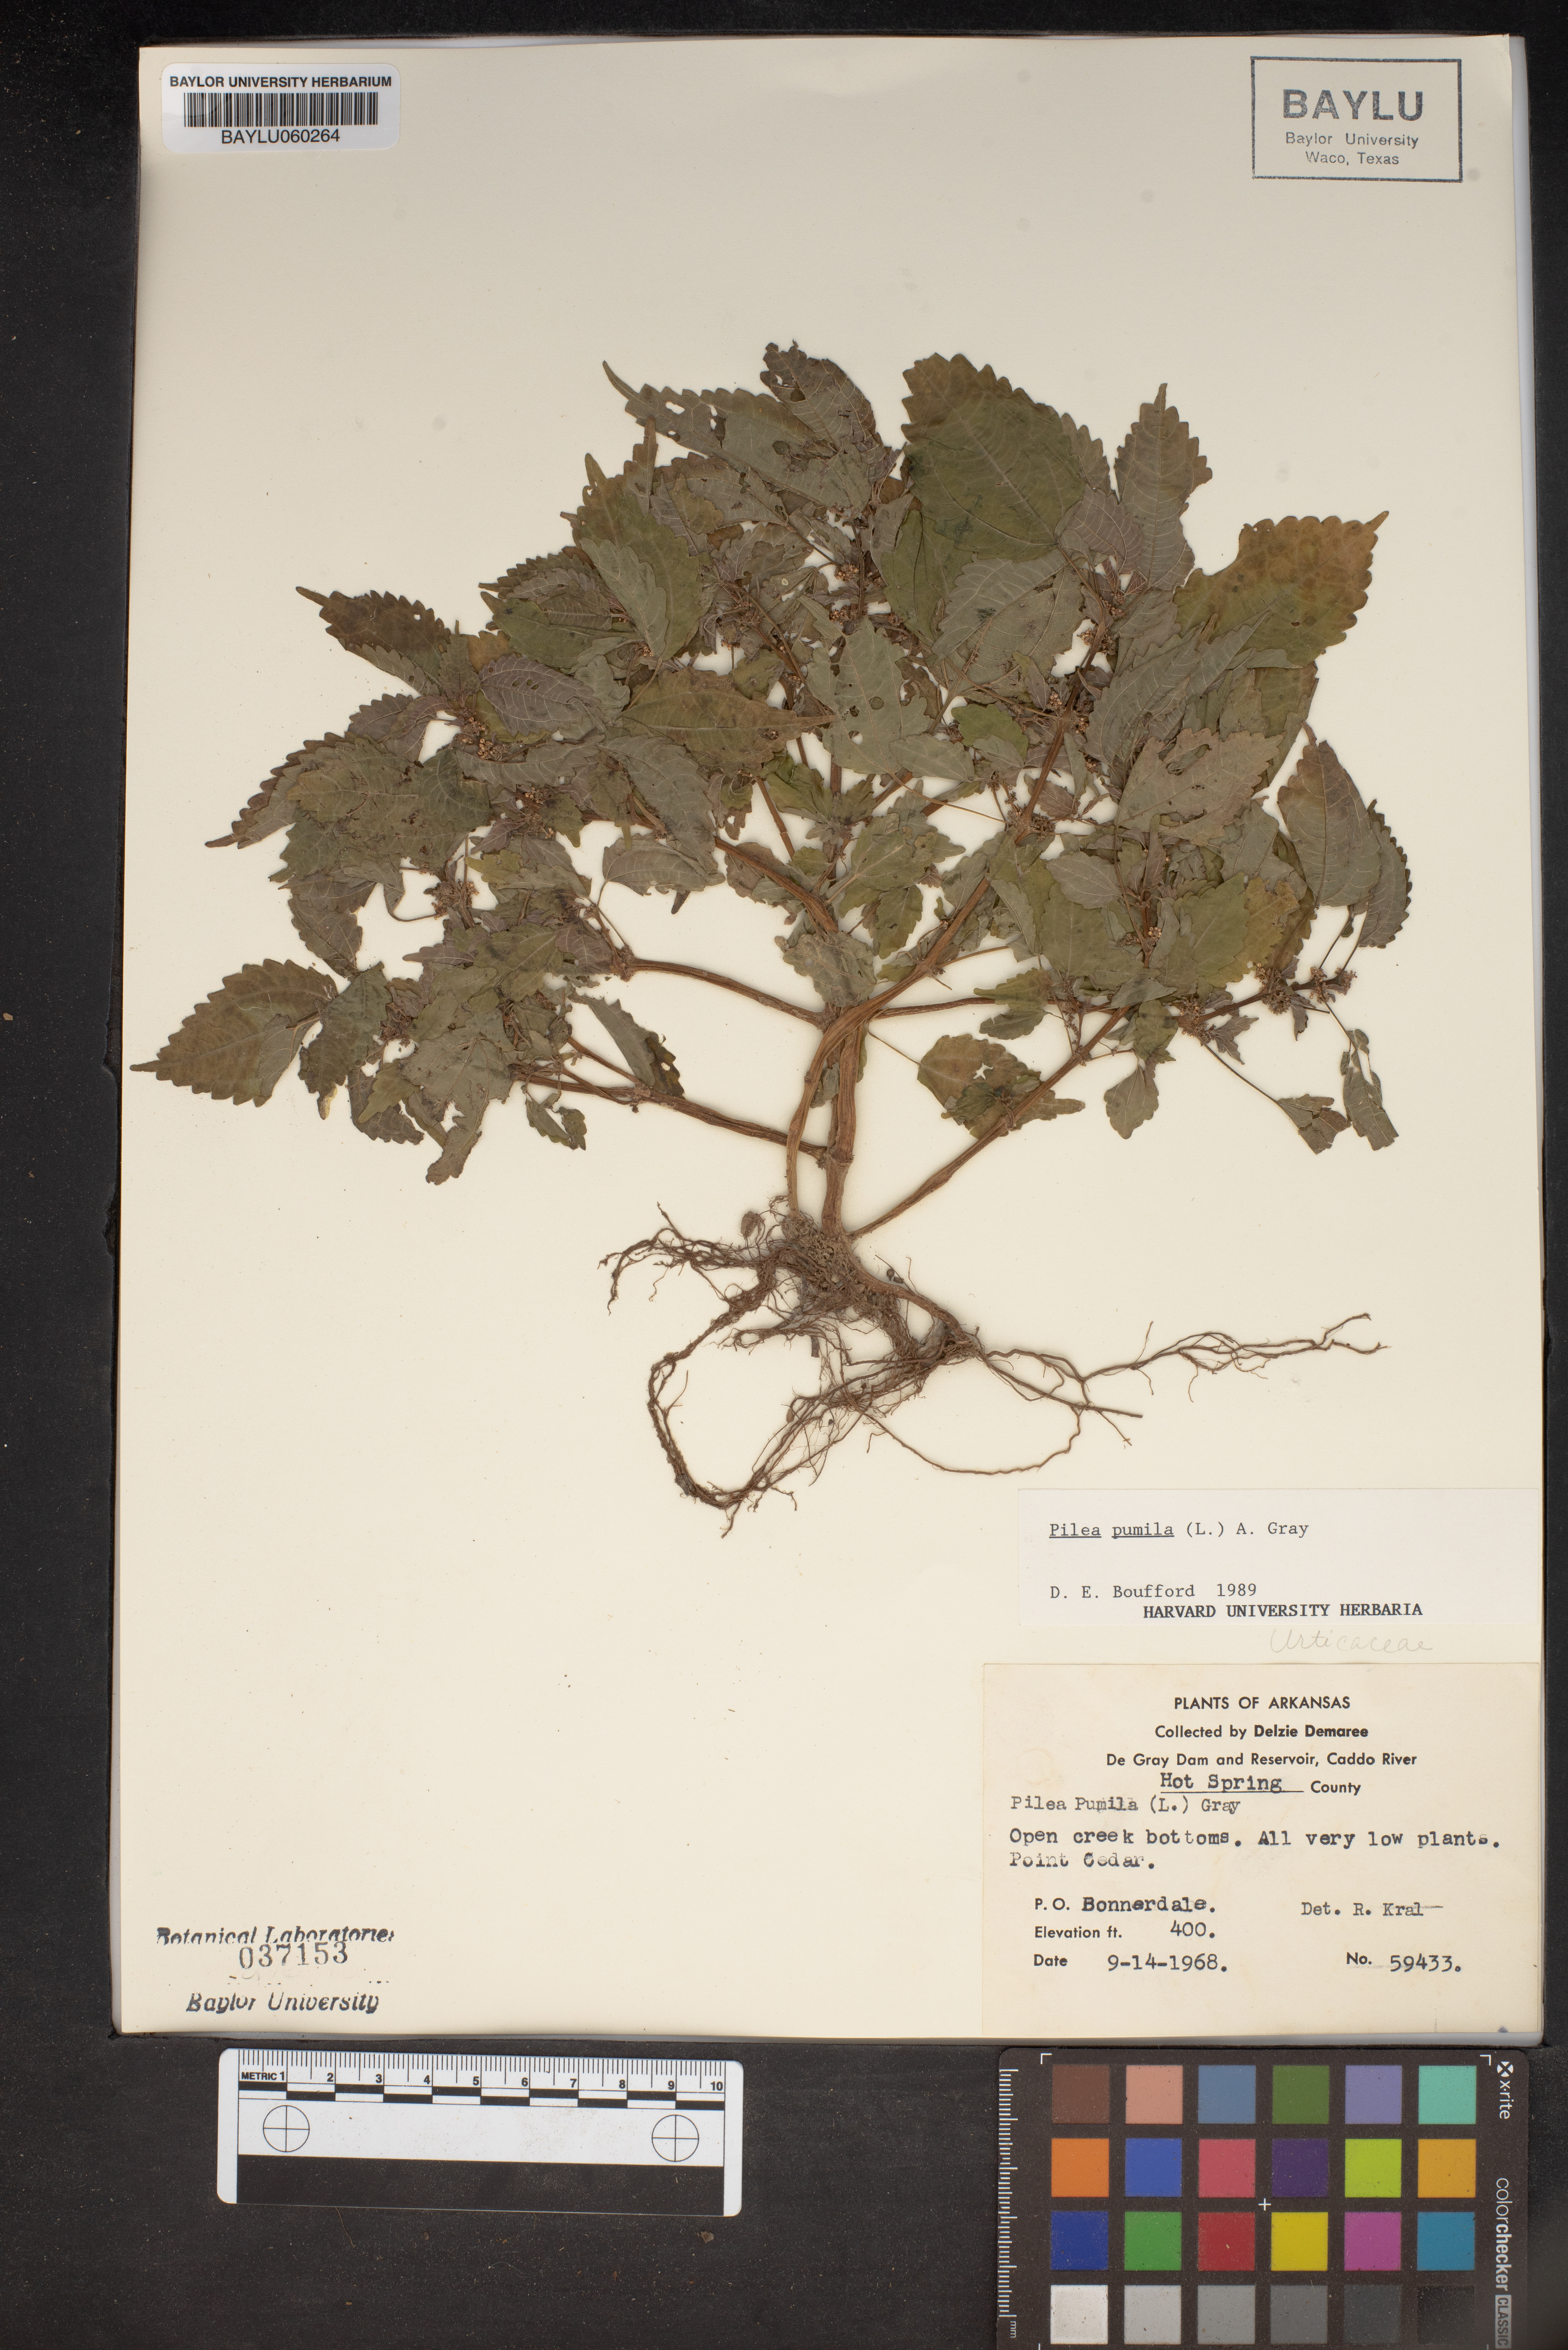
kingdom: Plantae
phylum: Tracheophyta
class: Magnoliopsida
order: Rosales
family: Urticaceae
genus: Pilea
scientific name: Pilea pumila
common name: Clearweed
